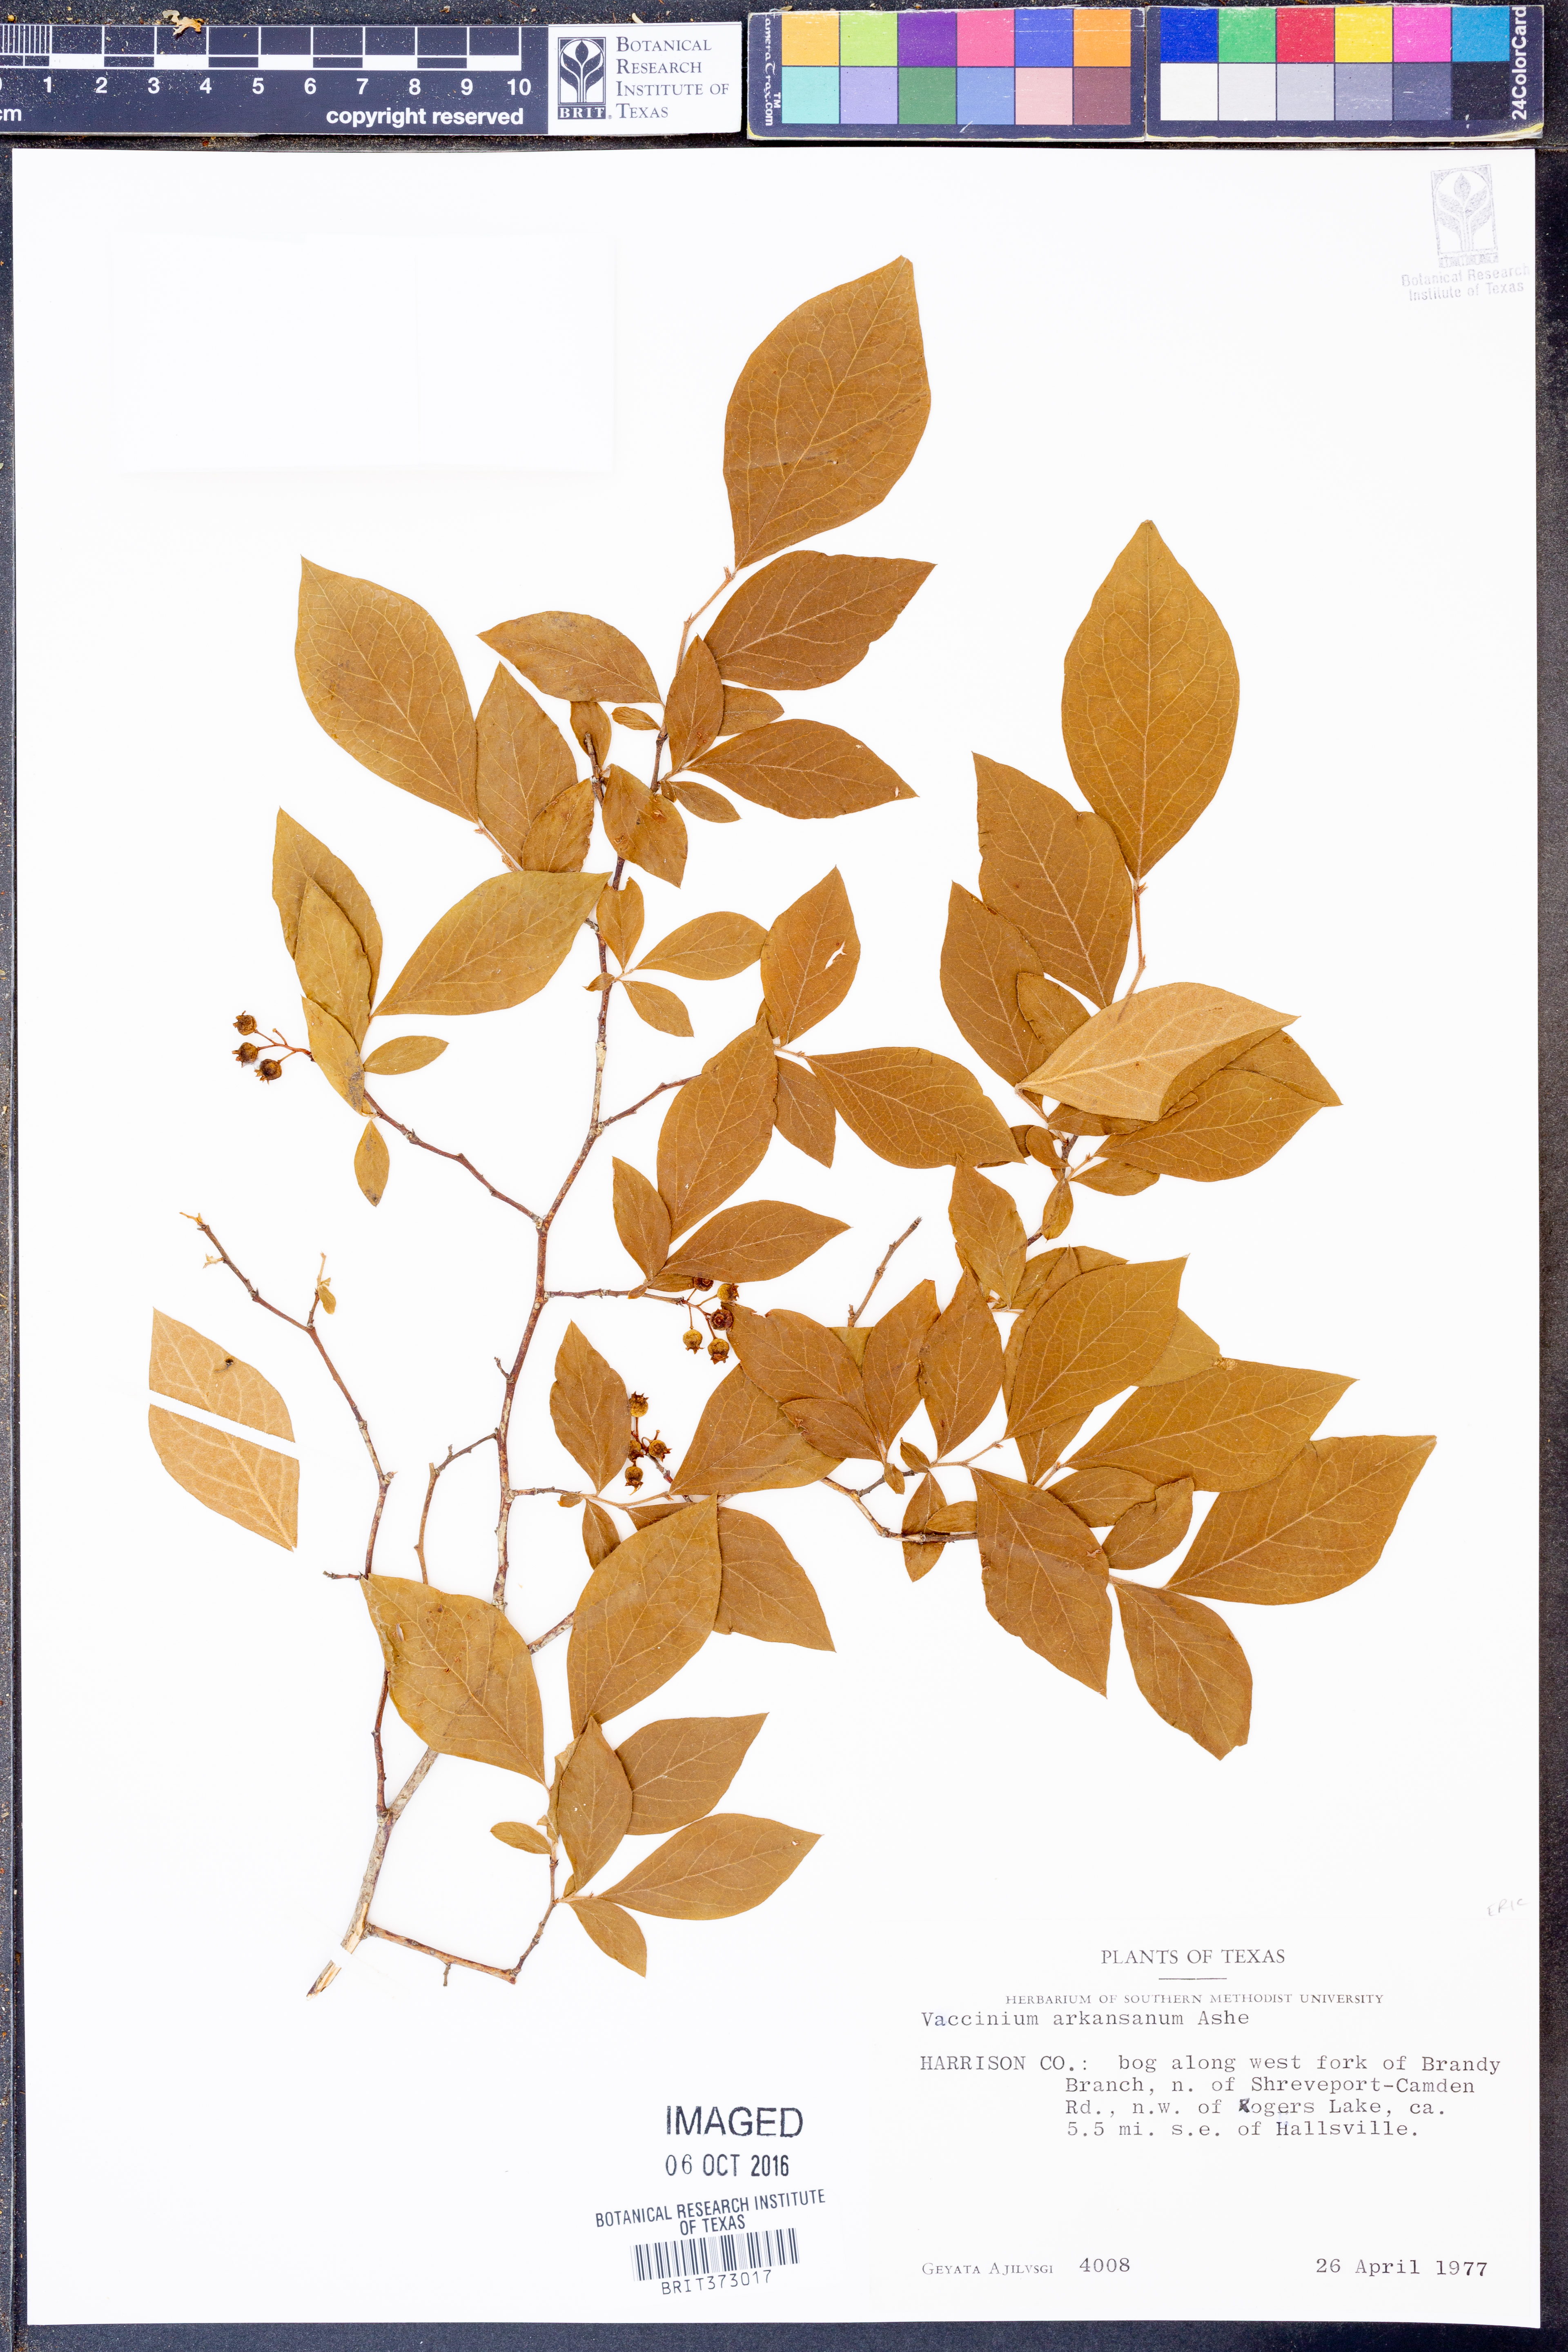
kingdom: Plantae
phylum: Tracheophyta
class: Magnoliopsida
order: Ericales
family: Ericaceae
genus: Vaccinium
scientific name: Vaccinium corymbosum
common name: Blueberry
